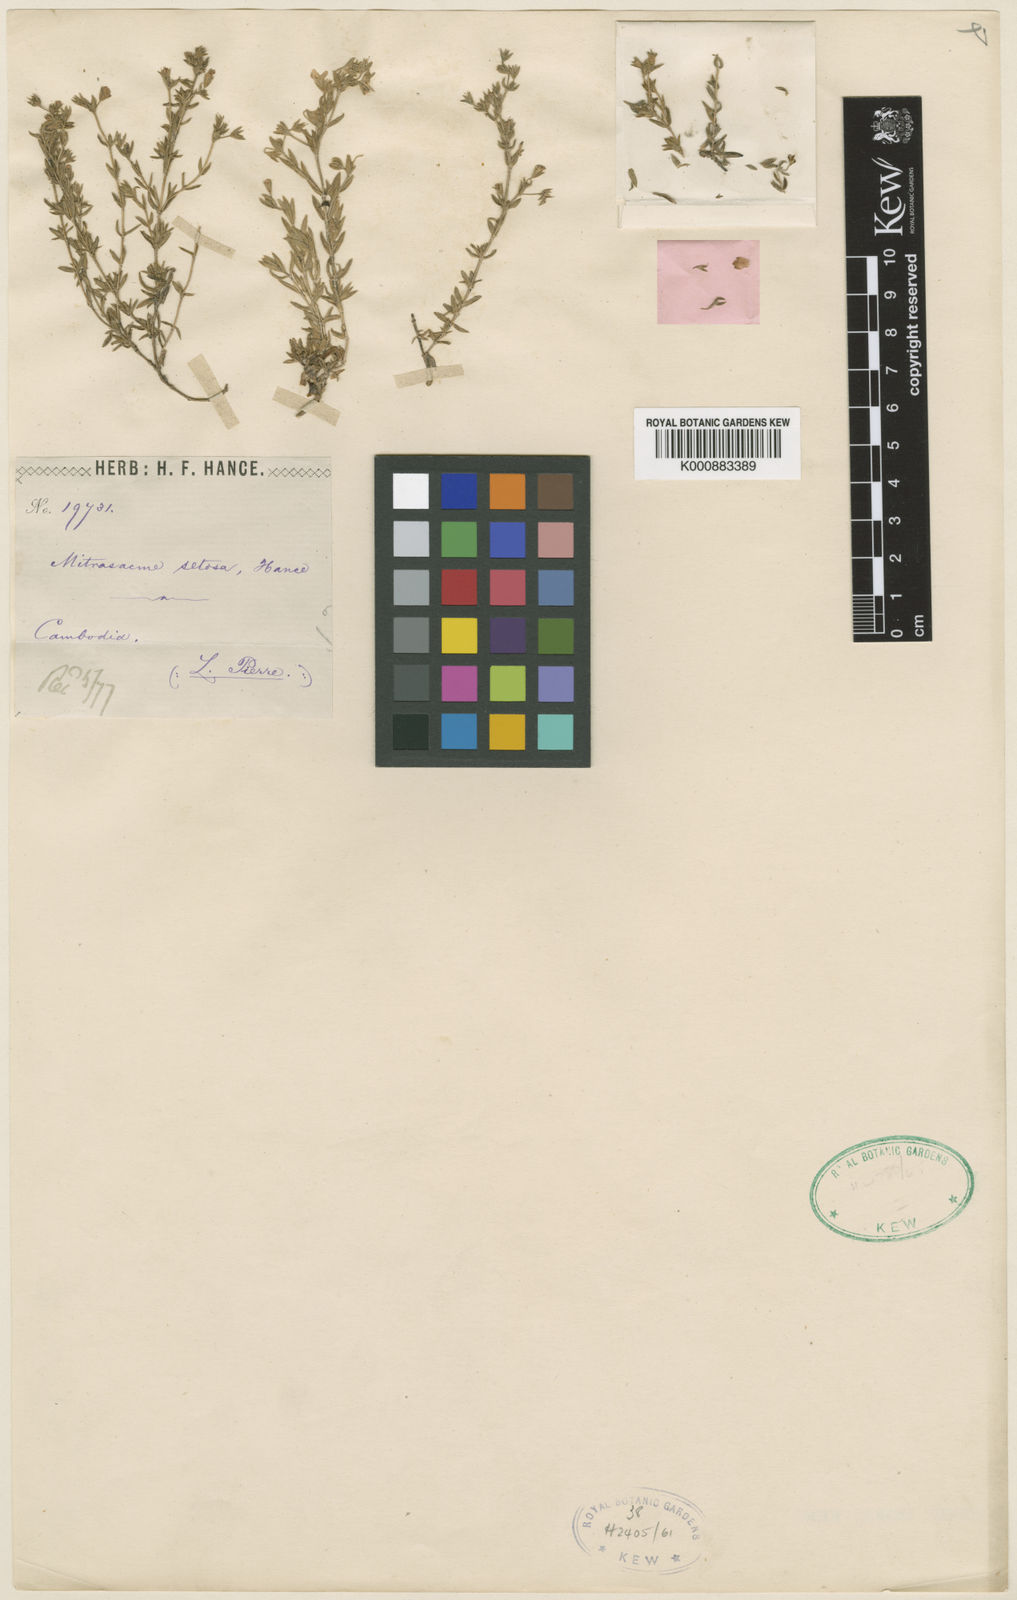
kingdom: Plantae
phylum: Tracheophyta
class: Magnoliopsida
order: Gentianales
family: Loganiaceae
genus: Mitrasacme
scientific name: Mitrasacme setosa
